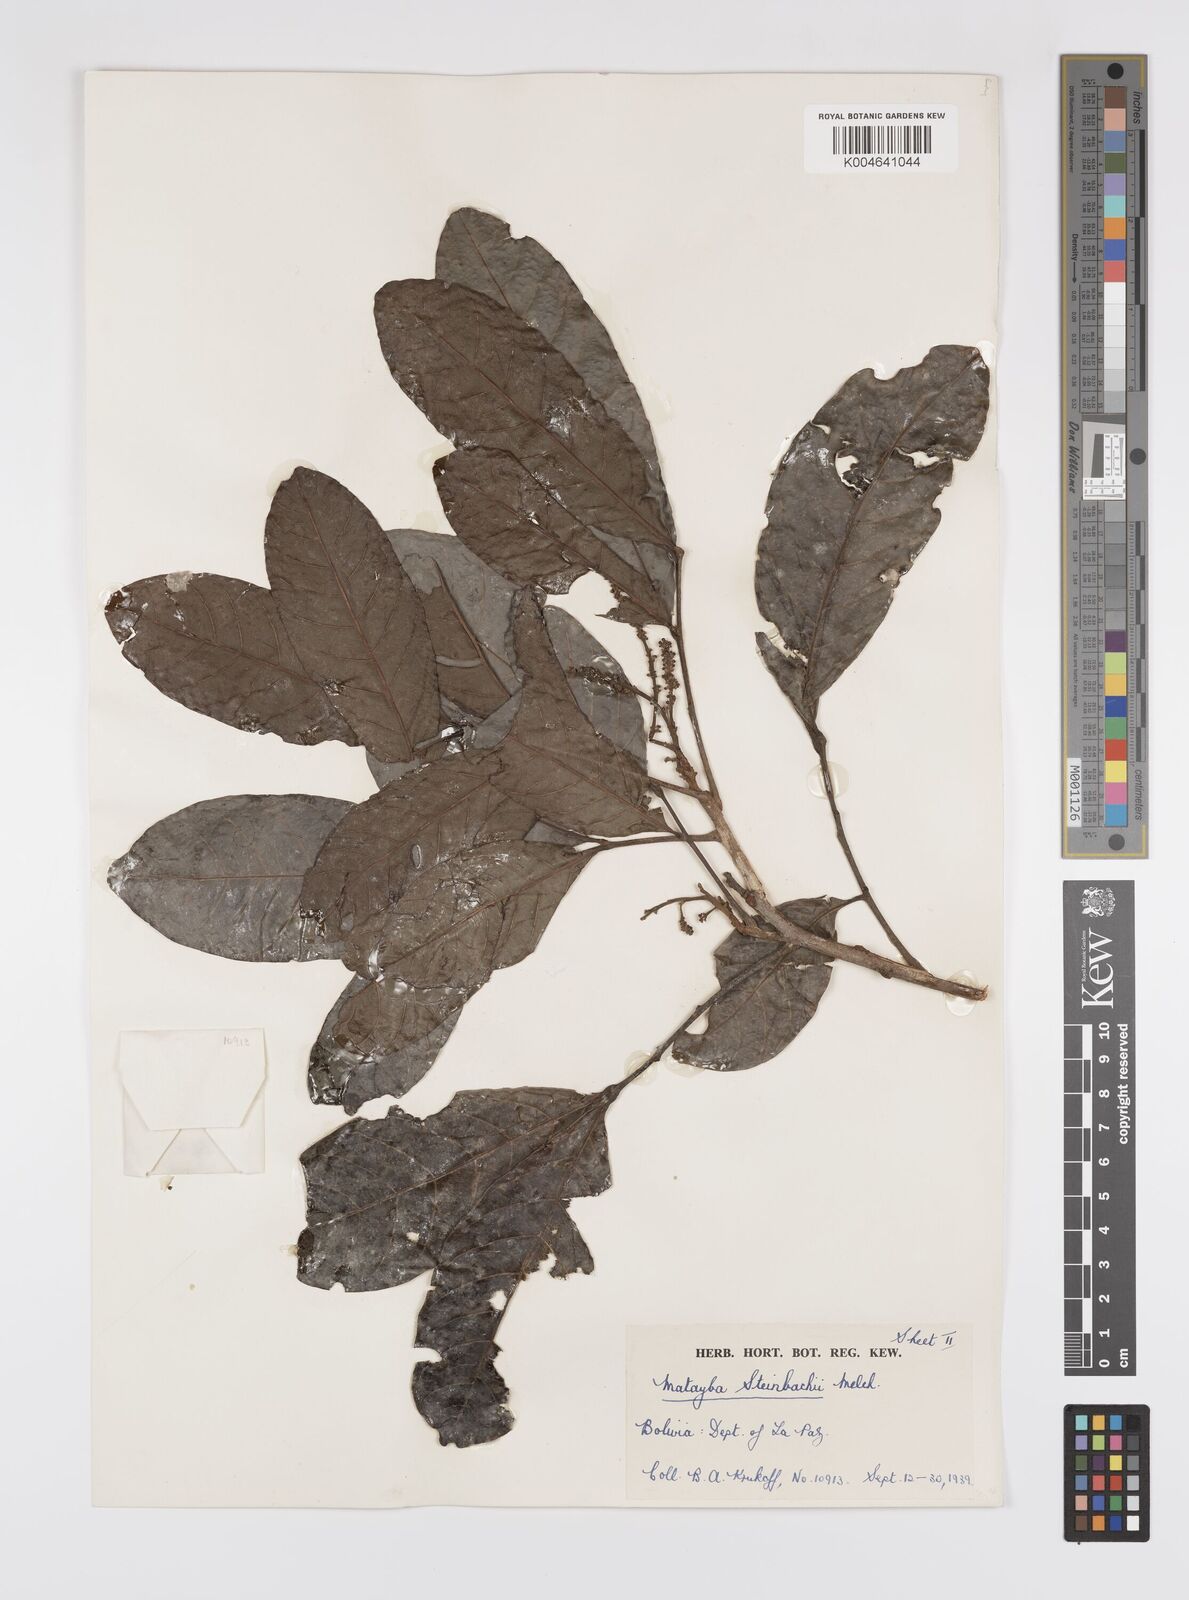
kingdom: Plantae
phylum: Tracheophyta
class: Magnoliopsida
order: Sapindales
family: Sapindaceae
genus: Matayba
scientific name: Matayba guianensis
